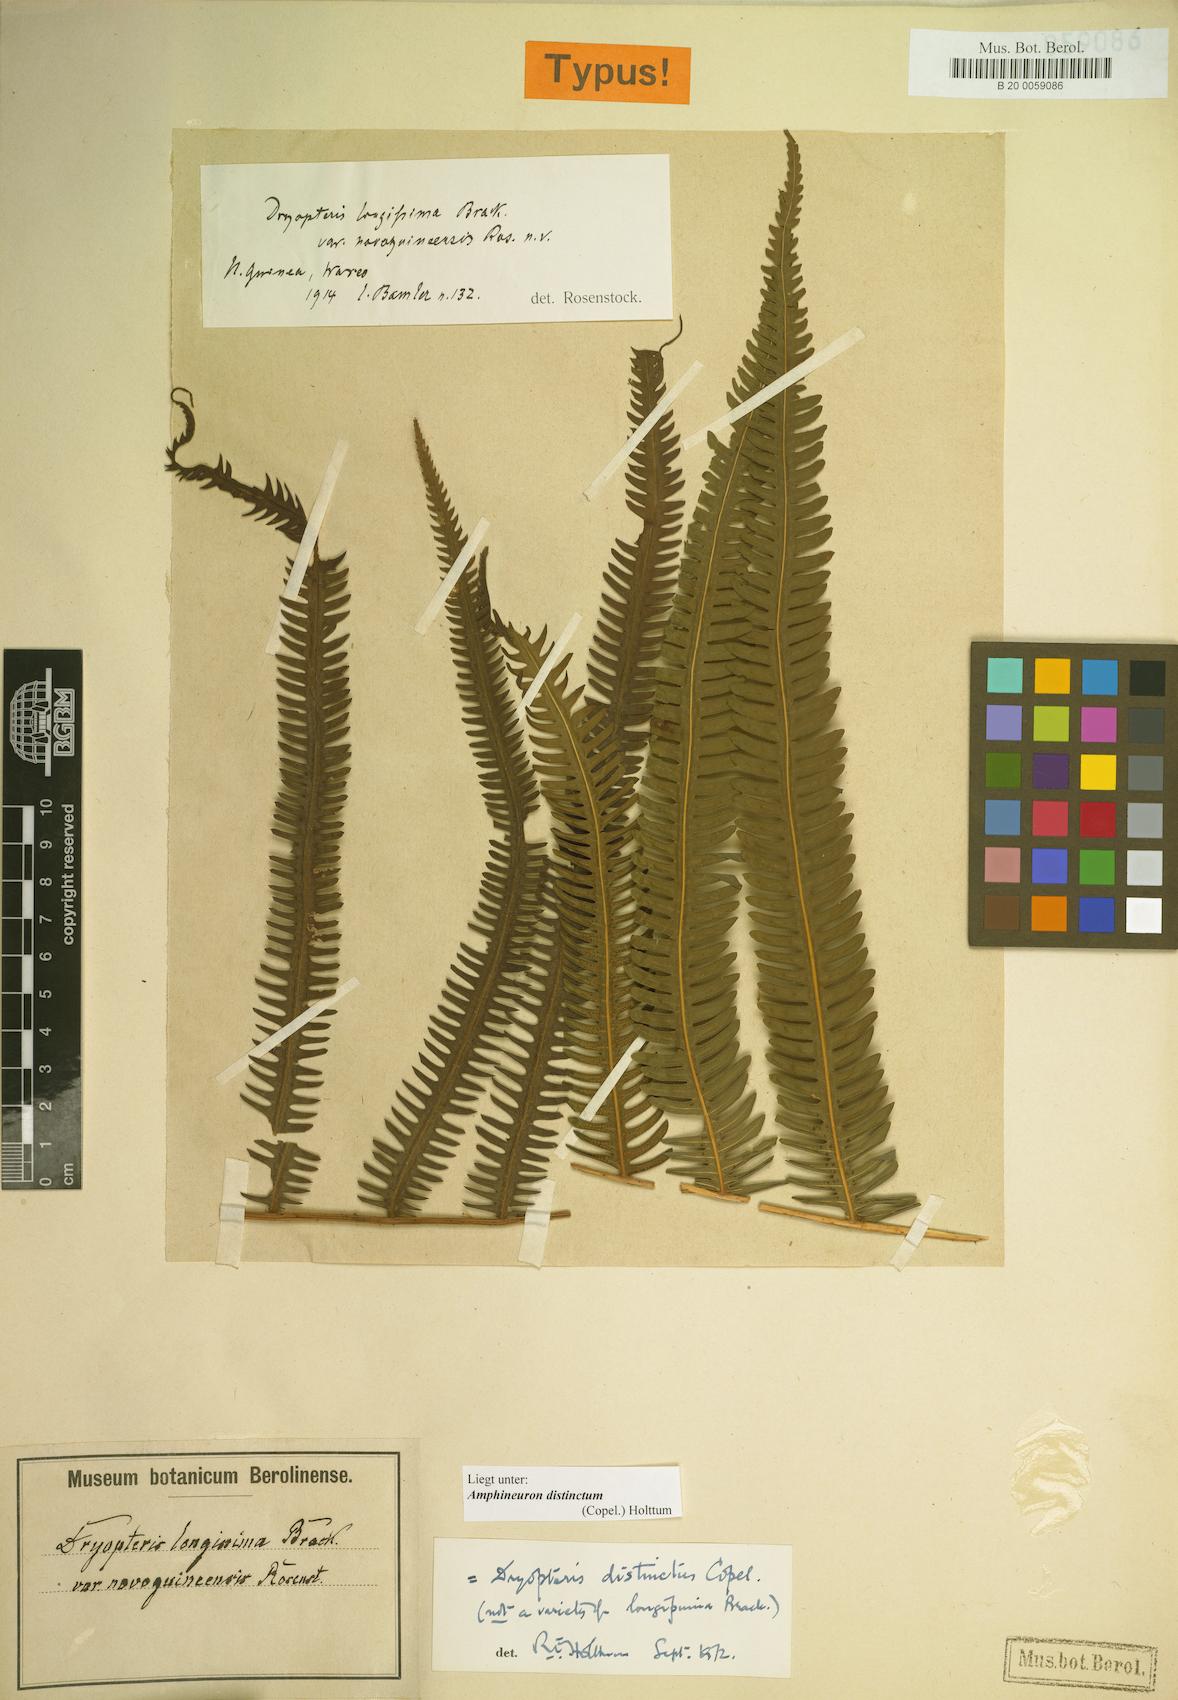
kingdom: Plantae
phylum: Tracheophyta
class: Polypodiopsida
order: Polypodiales
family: Thelypteridaceae
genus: Amblovenatum
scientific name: Amblovenatum distinctum
